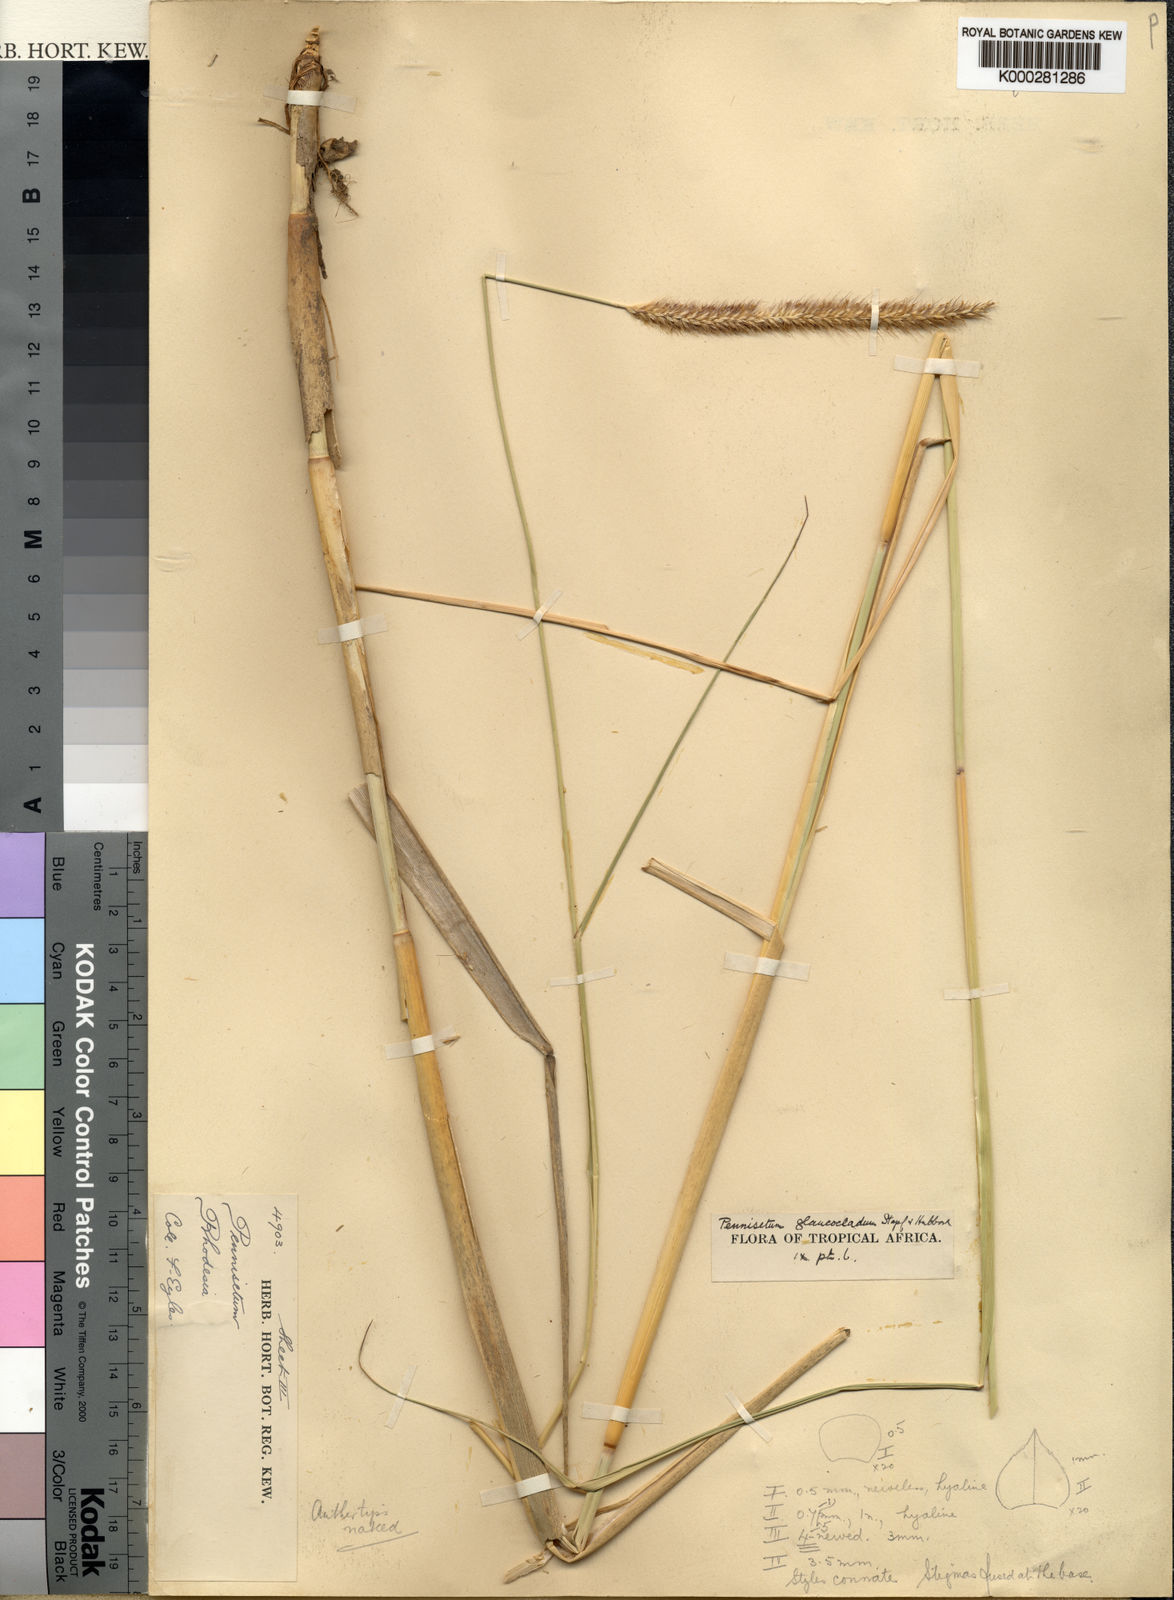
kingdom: Plantae
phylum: Tracheophyta
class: Liliopsida
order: Poales
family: Poaceae
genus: Cenchrus
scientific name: Cenchrus caudatus
